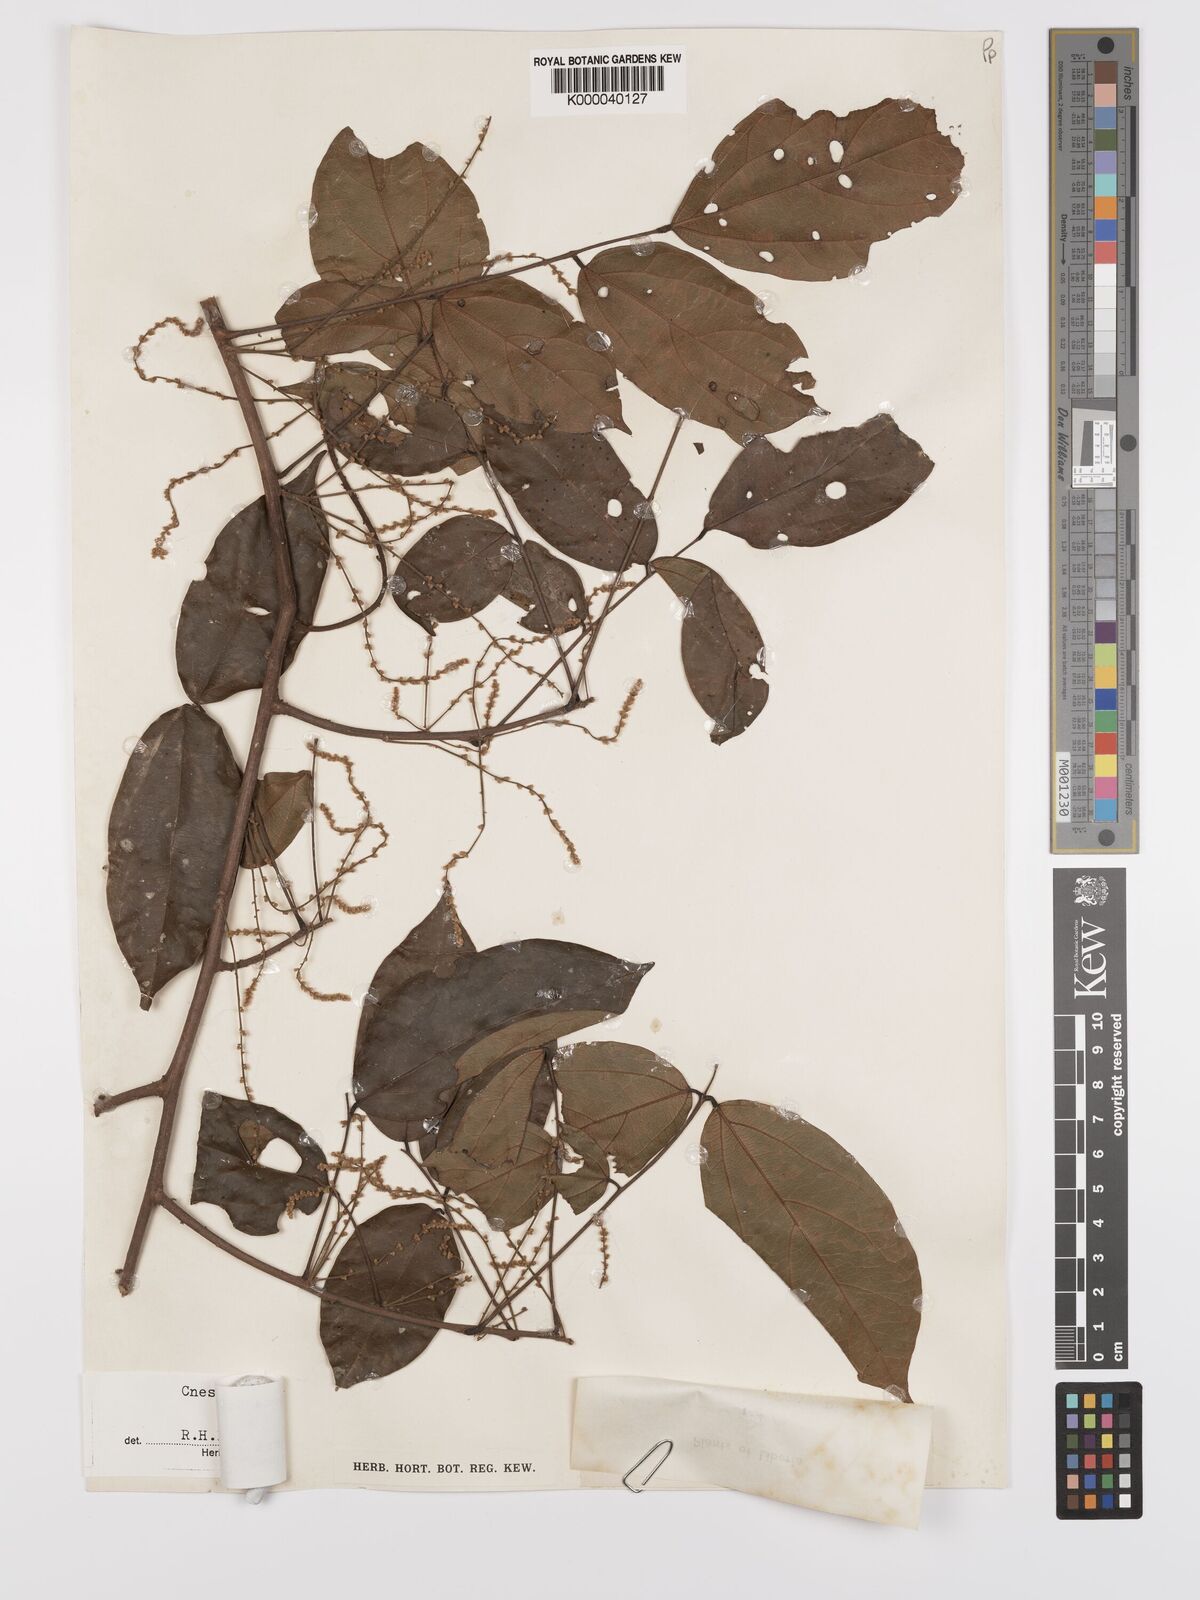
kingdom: Plantae
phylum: Tracheophyta
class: Magnoliopsida
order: Oxalidales
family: Connaraceae
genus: Cnestis
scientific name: Cnestis racemosa
